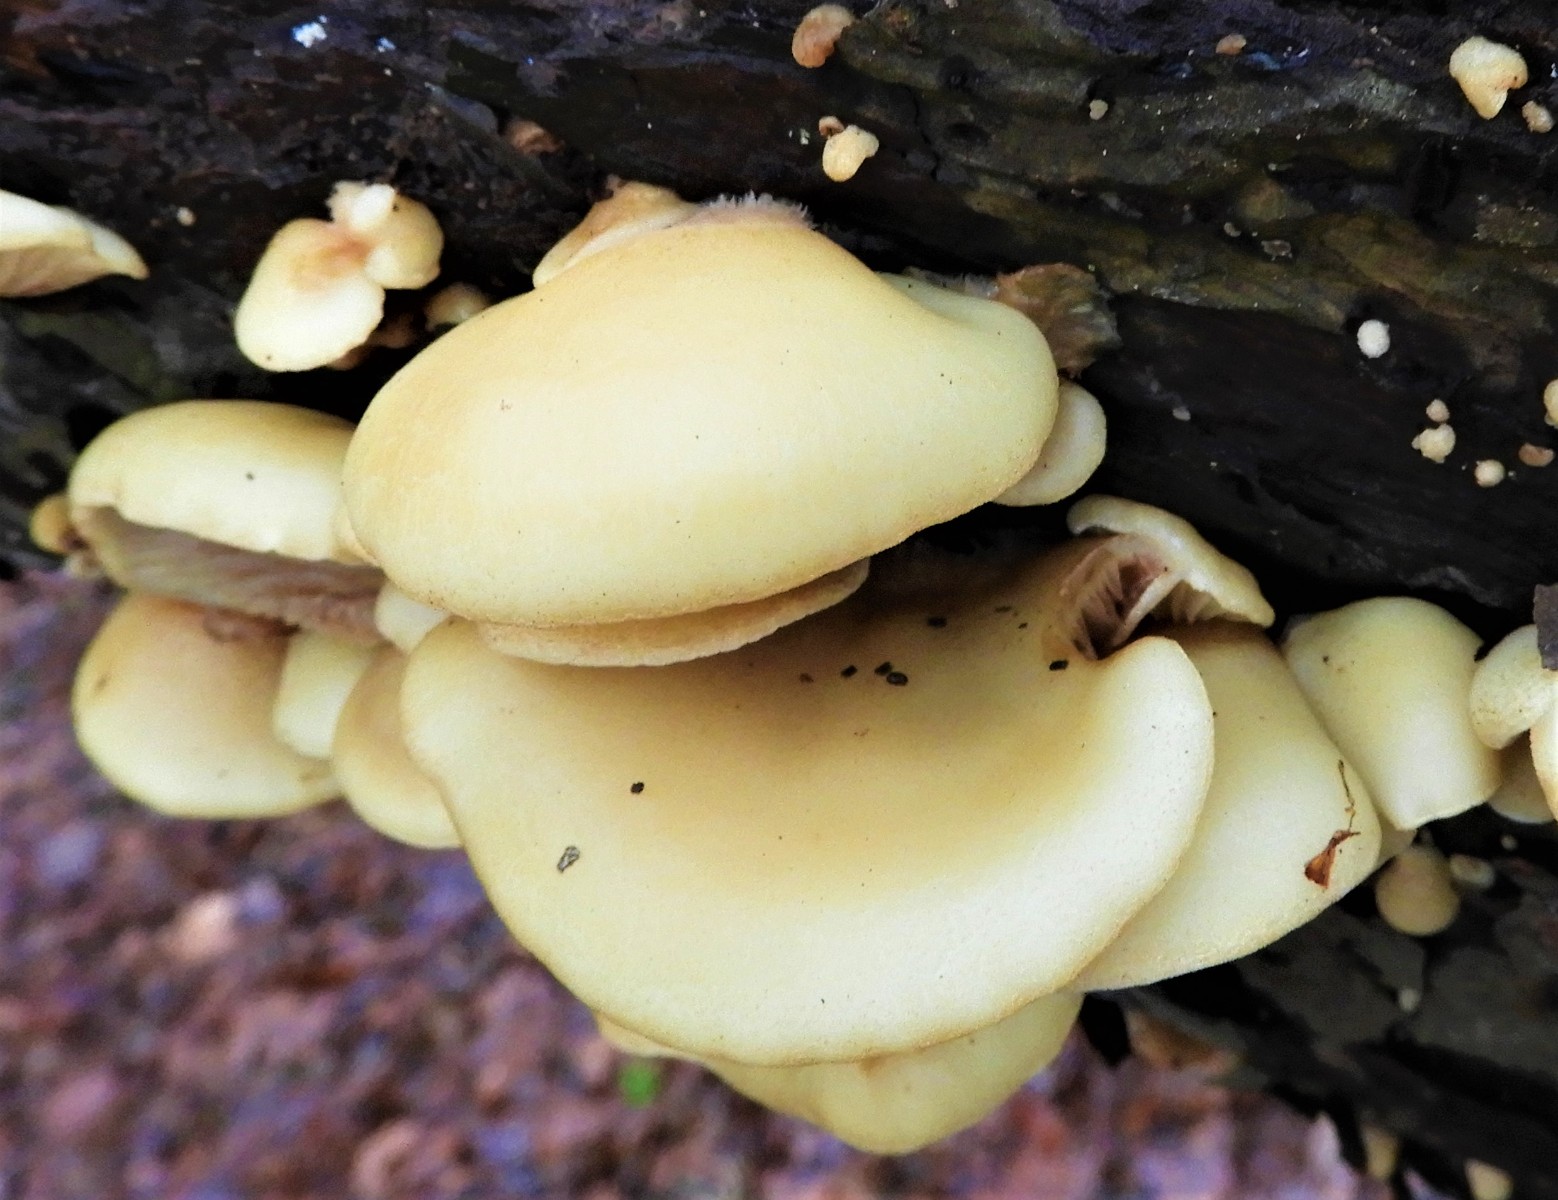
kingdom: Fungi
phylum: Basidiomycota
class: Agaricomycetes
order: Agaricales
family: Crepidotaceae
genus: Crepidotus
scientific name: Crepidotus mollis
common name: blød muslingesvamp
